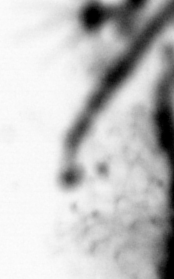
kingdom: Animalia
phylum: Chordata
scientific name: Chordata
